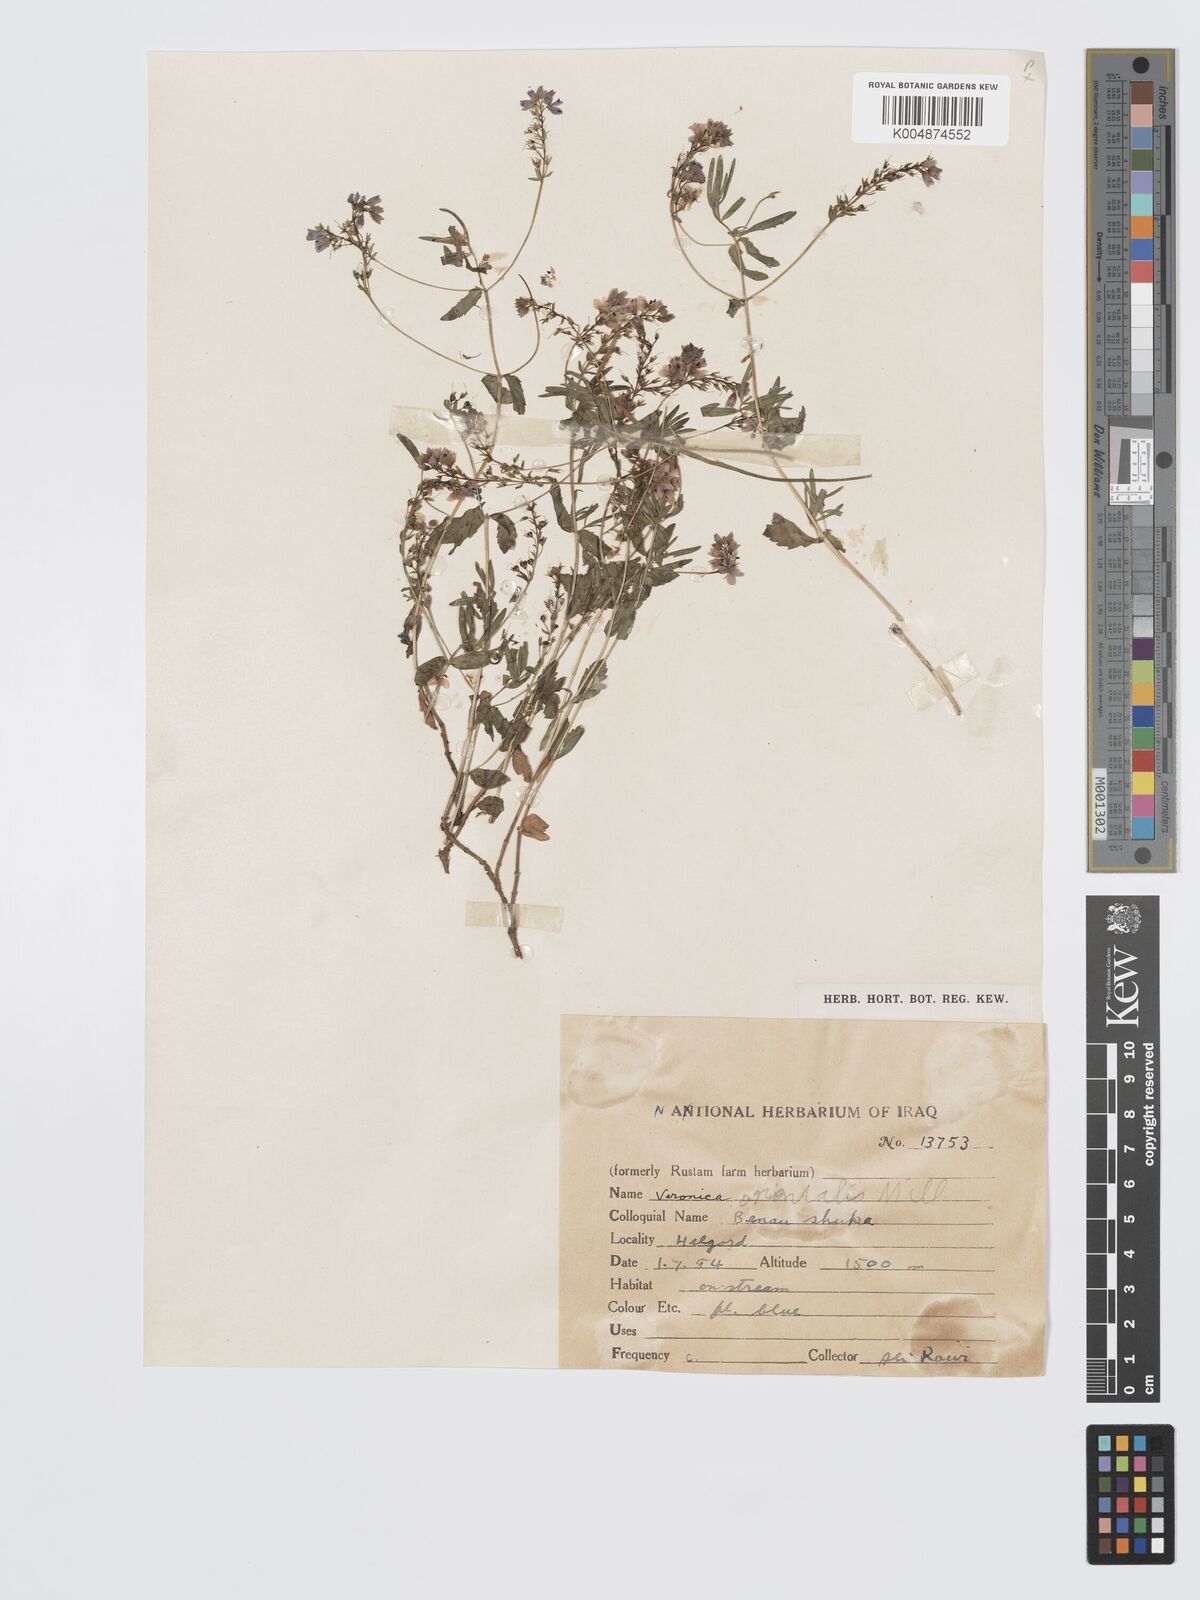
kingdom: Plantae
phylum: Tracheophyta
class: Magnoliopsida
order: Lamiales
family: Plantaginaceae
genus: Veronica
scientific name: Veronica
